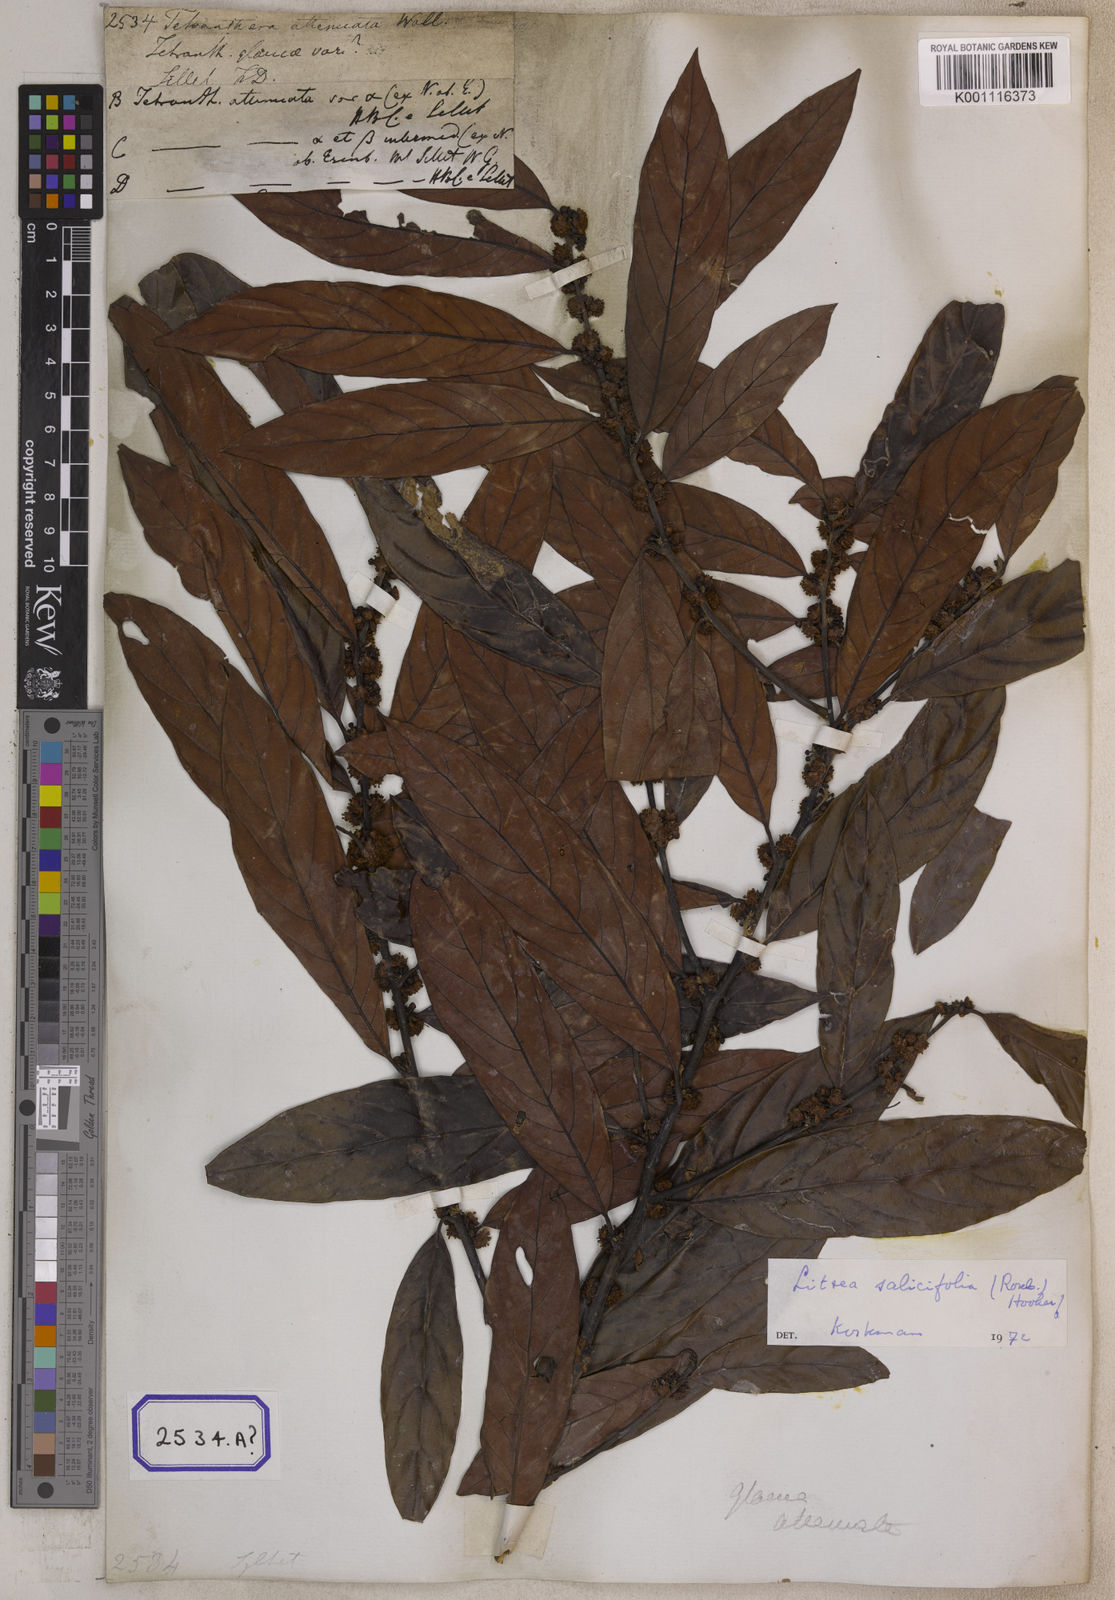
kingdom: Plantae
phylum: Tracheophyta
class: Magnoliopsida
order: Laurales
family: Lauraceae
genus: Litsea
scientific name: Litsea
